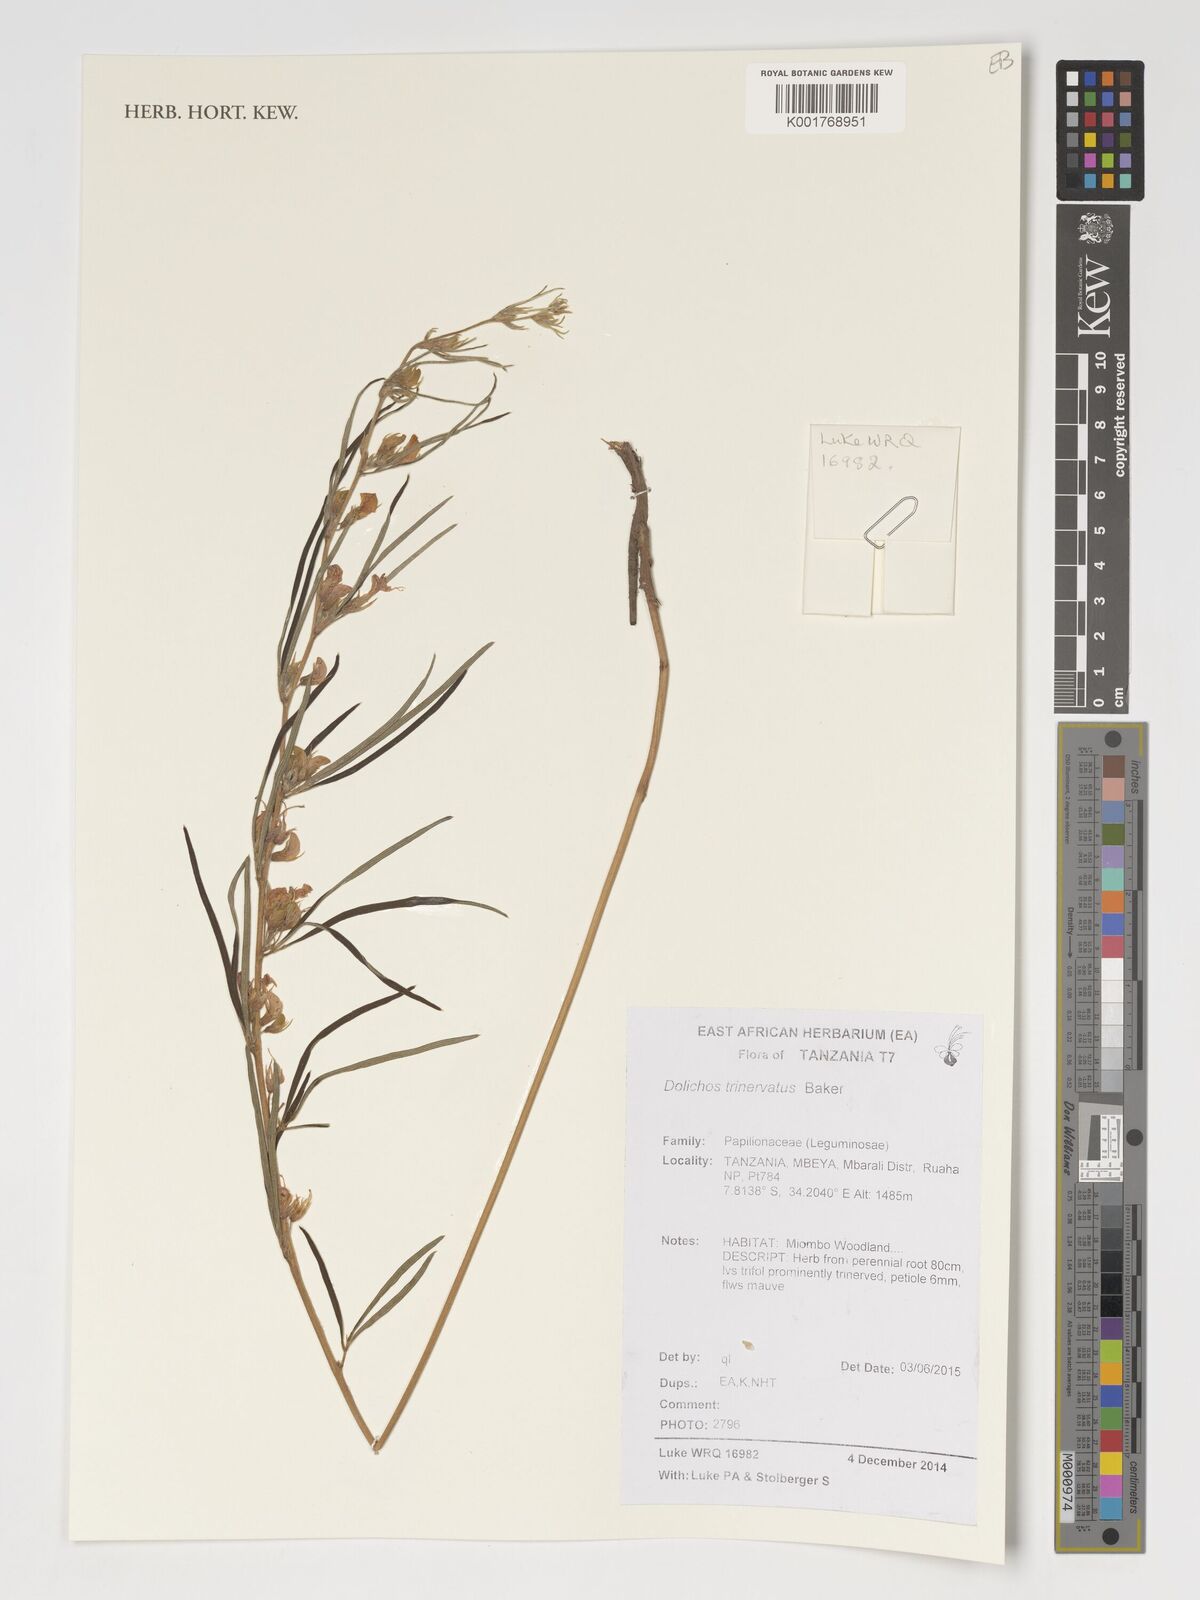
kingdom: Plantae
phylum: Tracheophyta
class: Magnoliopsida
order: Fabales
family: Fabaceae
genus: Dolichos
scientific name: Dolichos trinervatus
